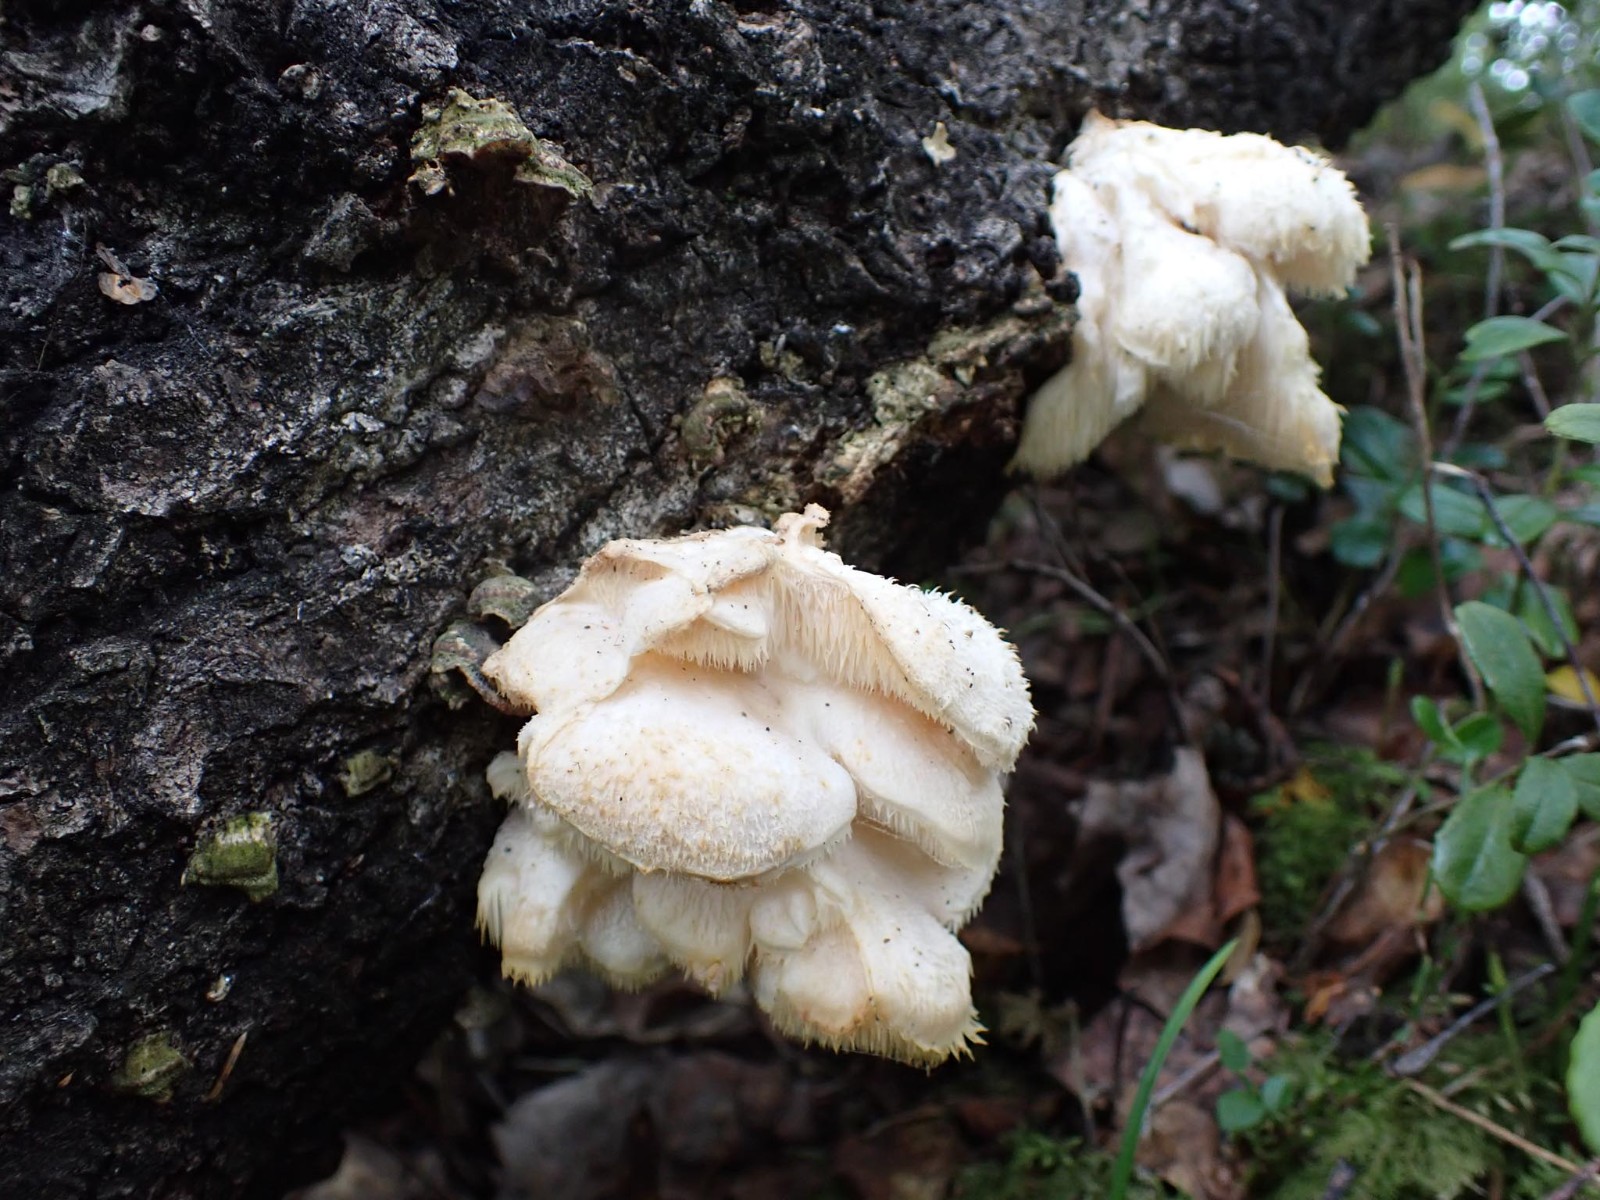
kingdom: Fungi
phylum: Basidiomycota
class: Agaricomycetes
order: Russulales
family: Hericiaceae
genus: Hericium
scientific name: Hericium cirrhatum
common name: børstepigsvamp
